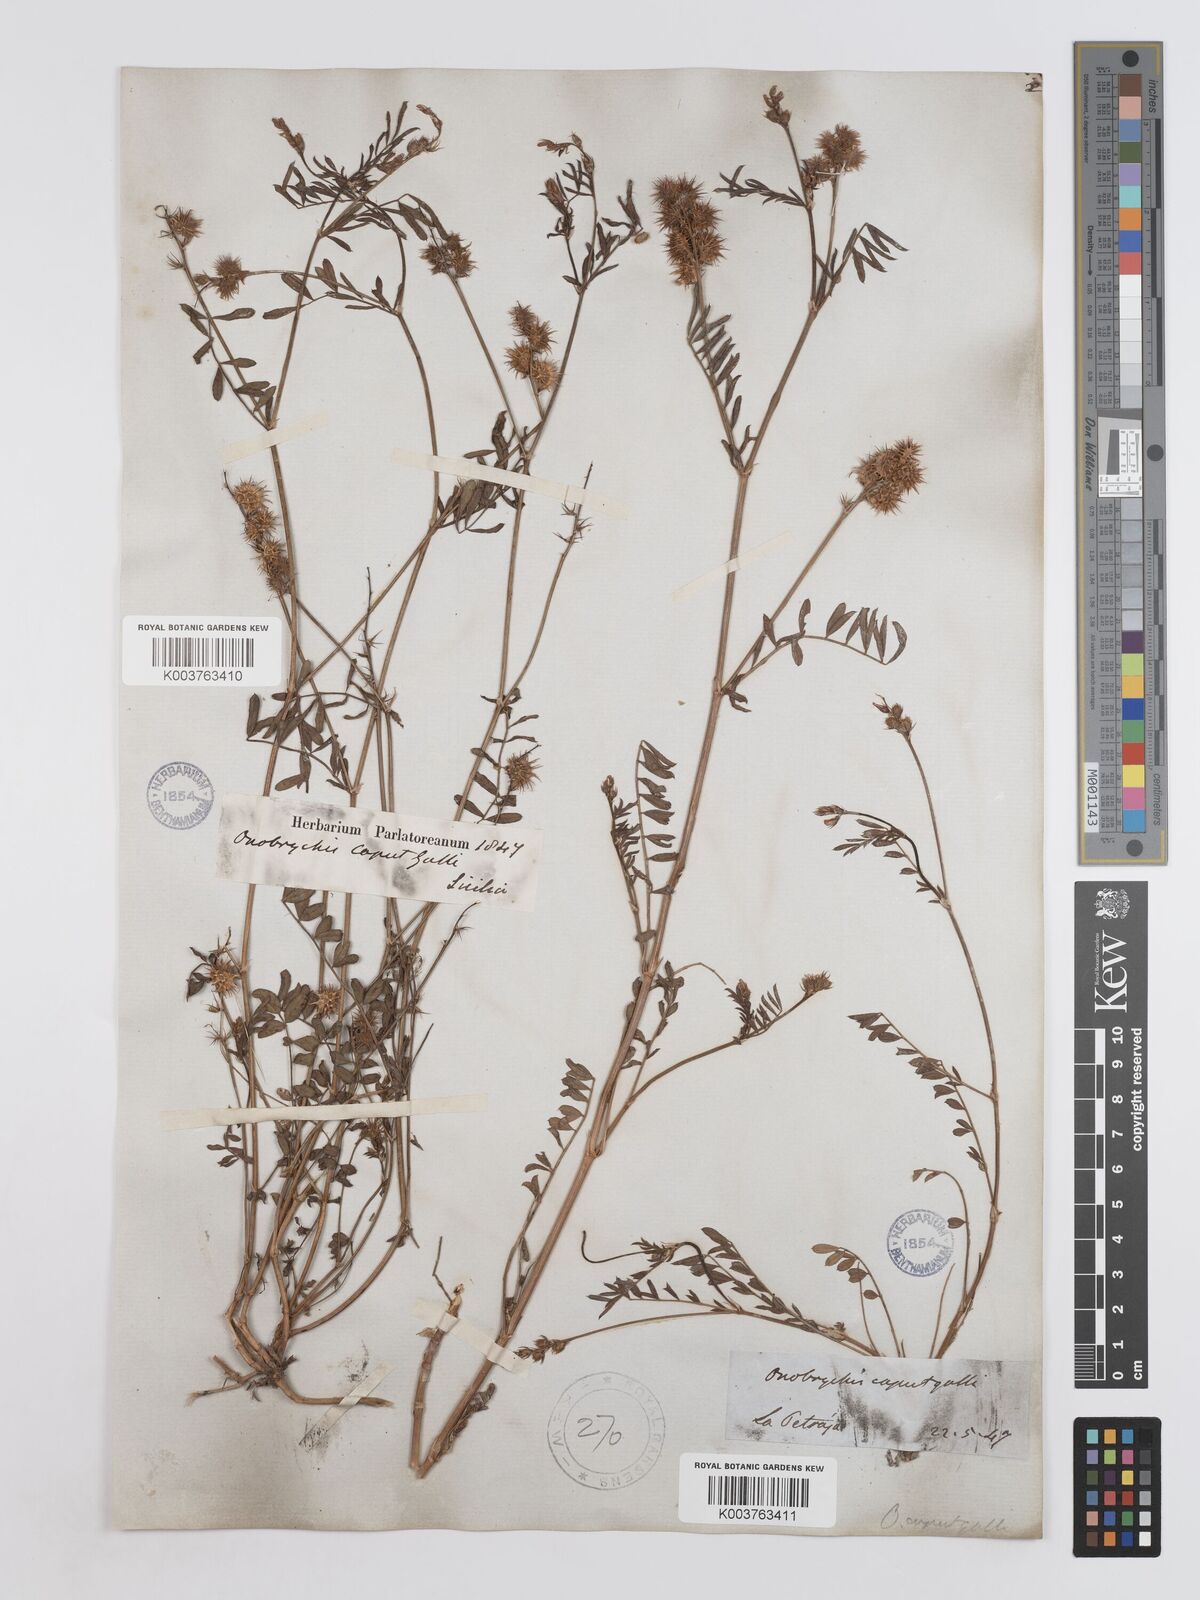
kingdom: Plantae
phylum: Tracheophyta
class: Magnoliopsida
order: Fabales
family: Fabaceae
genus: Onobrychis
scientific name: Onobrychis caput-galli
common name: Cockscomb sainfoin
